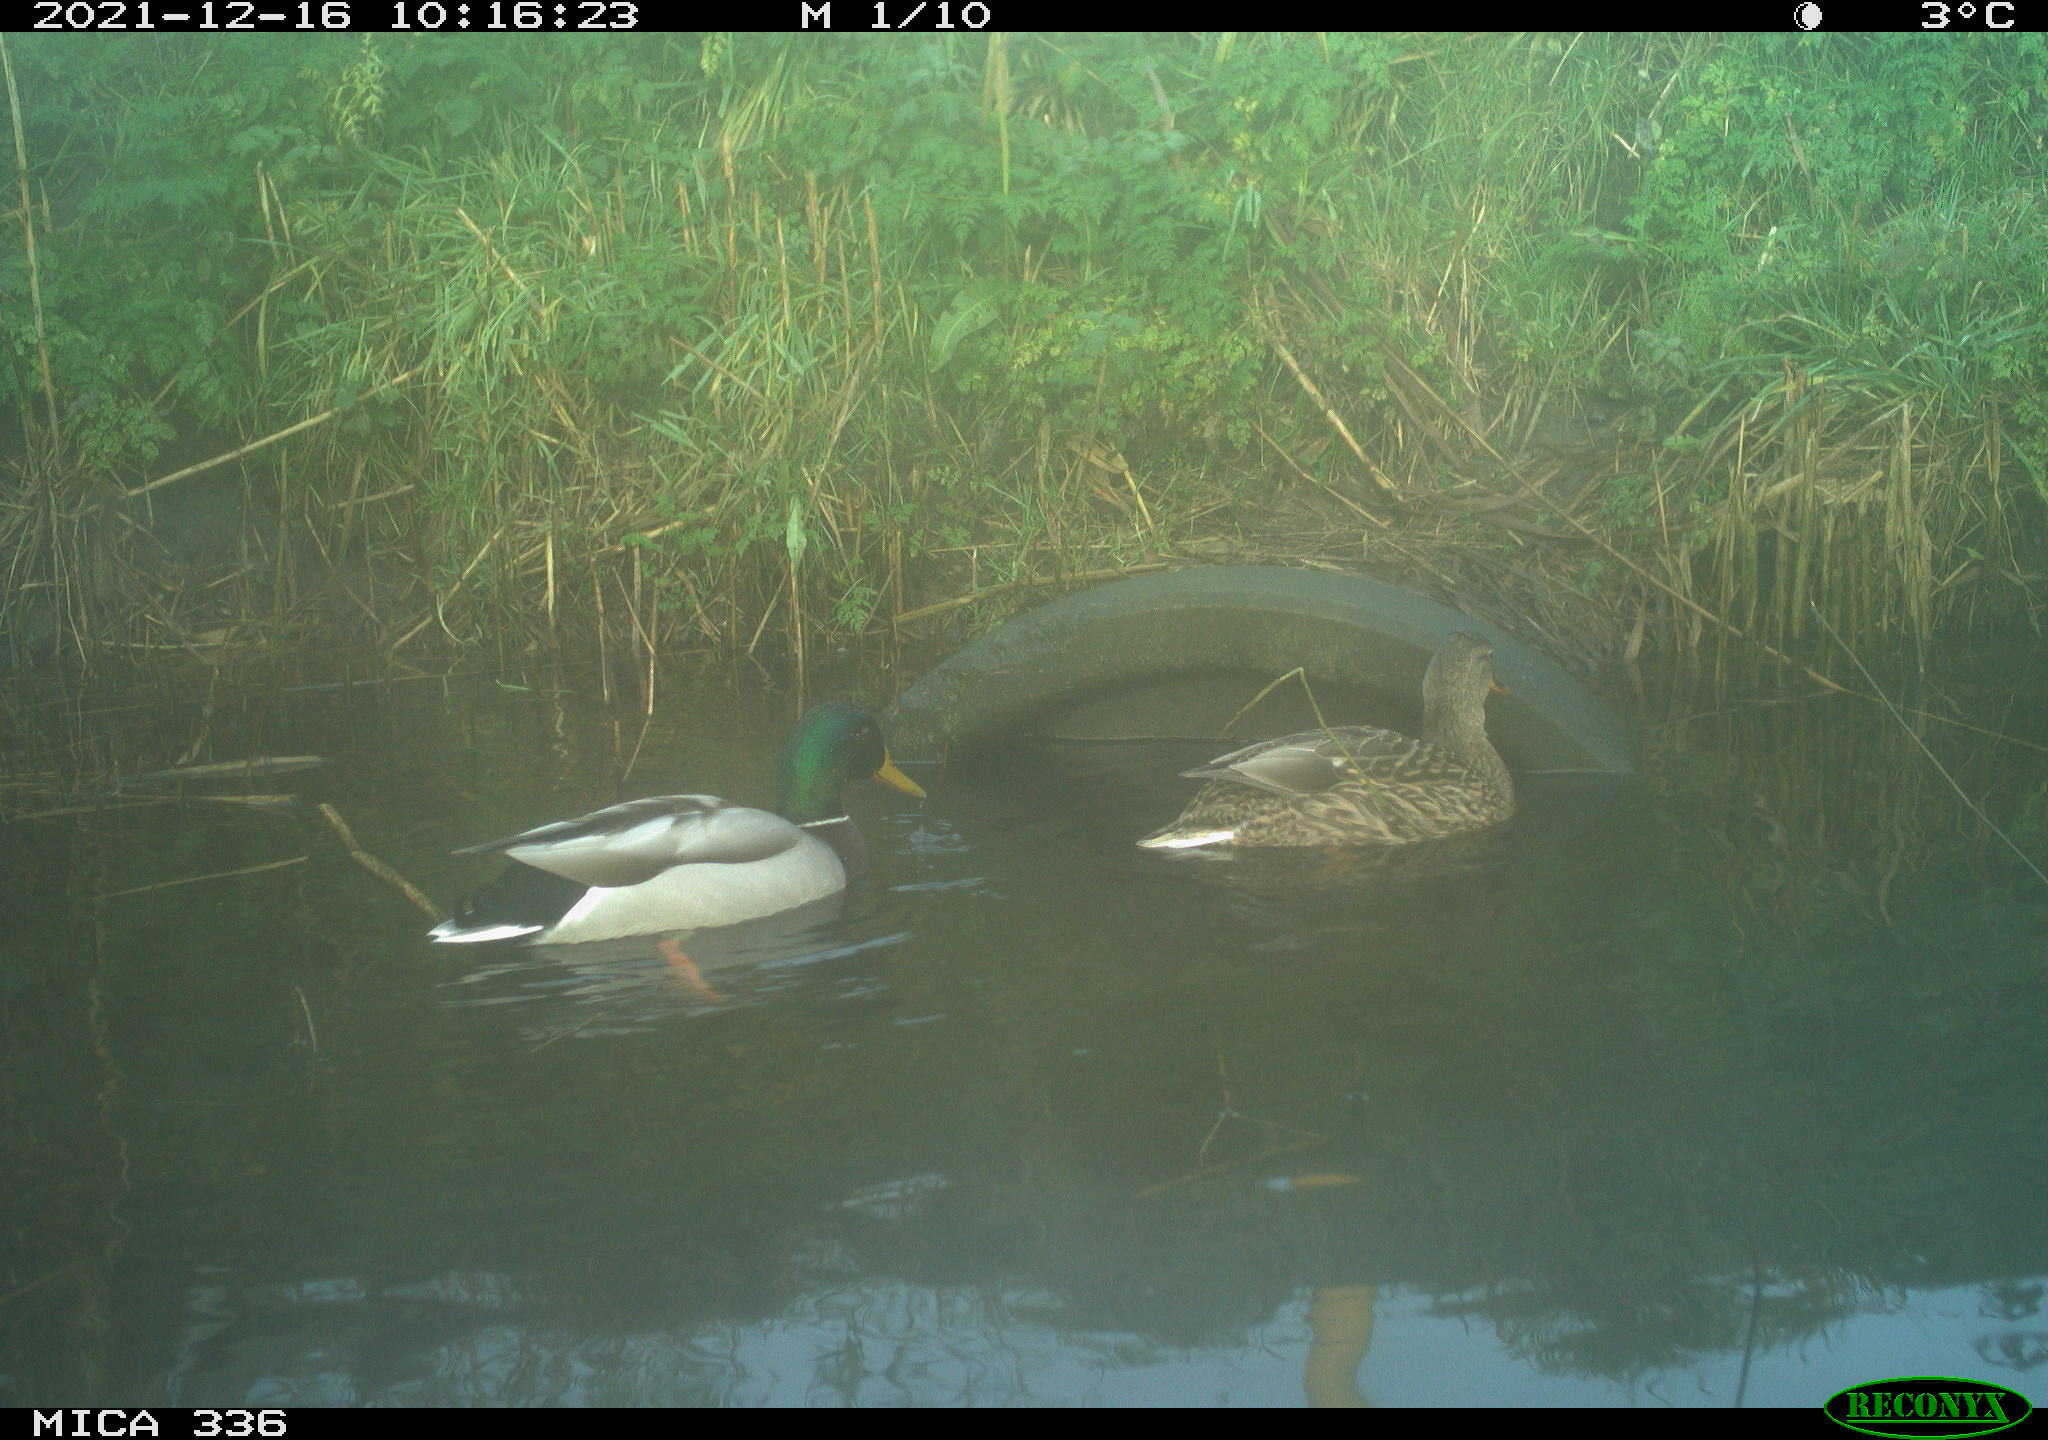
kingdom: Animalia
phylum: Chordata
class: Aves
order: Anseriformes
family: Anatidae
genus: Anas
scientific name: Anas platyrhynchos
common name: Mallard
